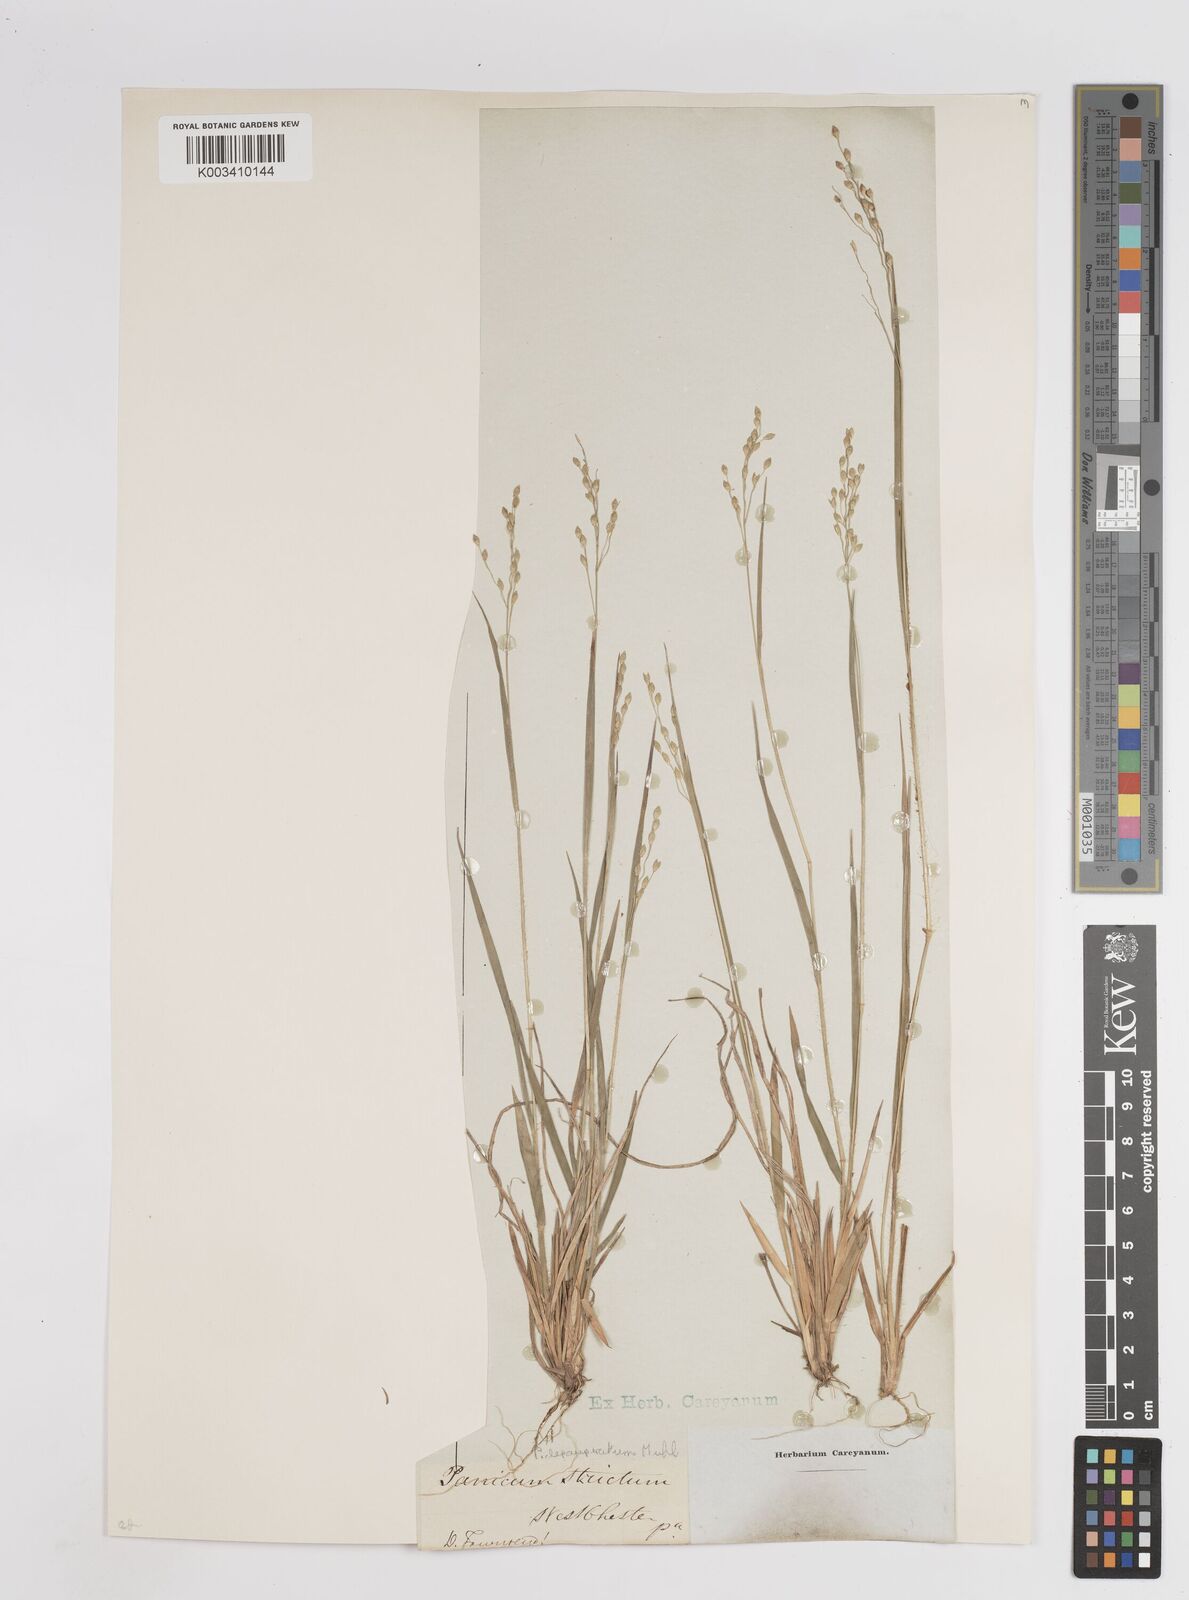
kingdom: Plantae
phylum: Tracheophyta
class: Liliopsida
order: Poales
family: Poaceae
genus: Dichanthelium
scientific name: Dichanthelium depauperatum
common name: Depauperate panicgrass
